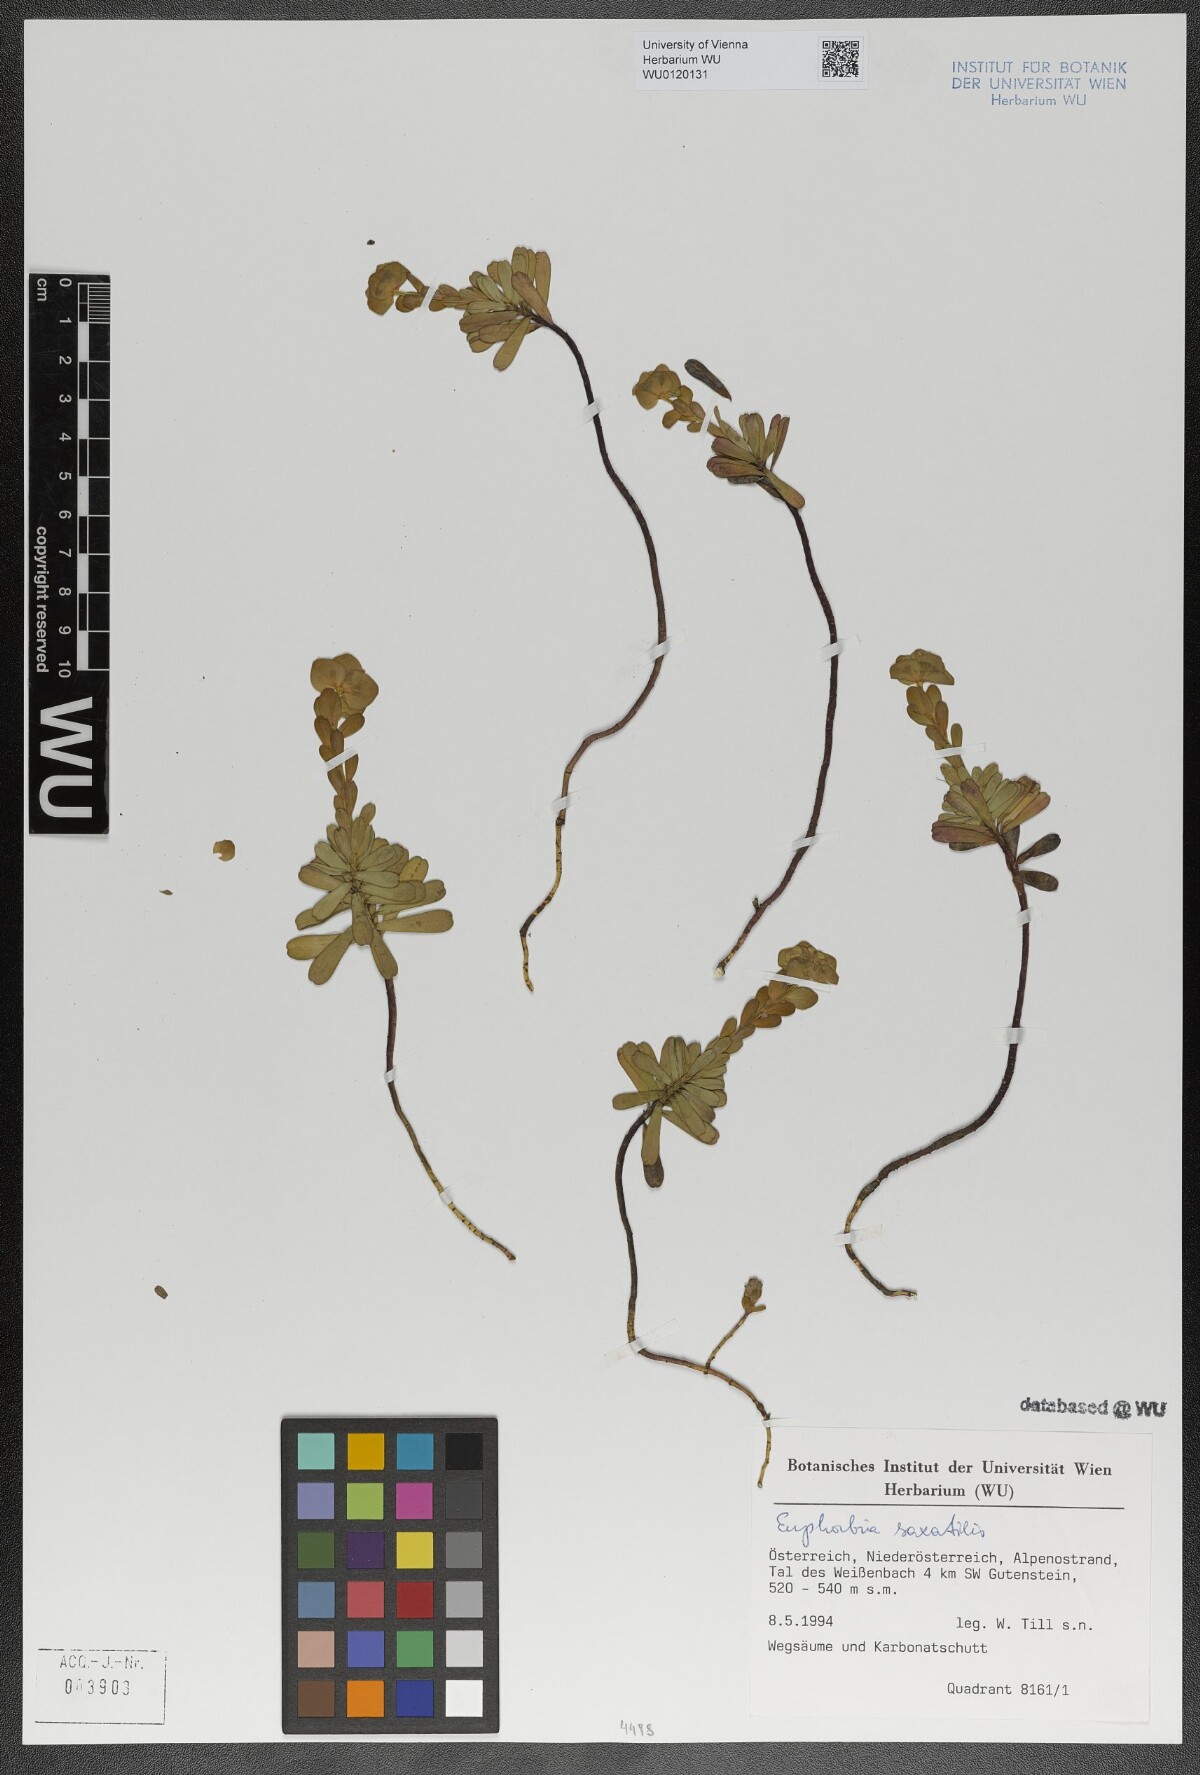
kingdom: Plantae
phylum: Tracheophyta
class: Magnoliopsida
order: Malpighiales
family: Euphorbiaceae
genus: Euphorbia
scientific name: Euphorbia saxatilis
